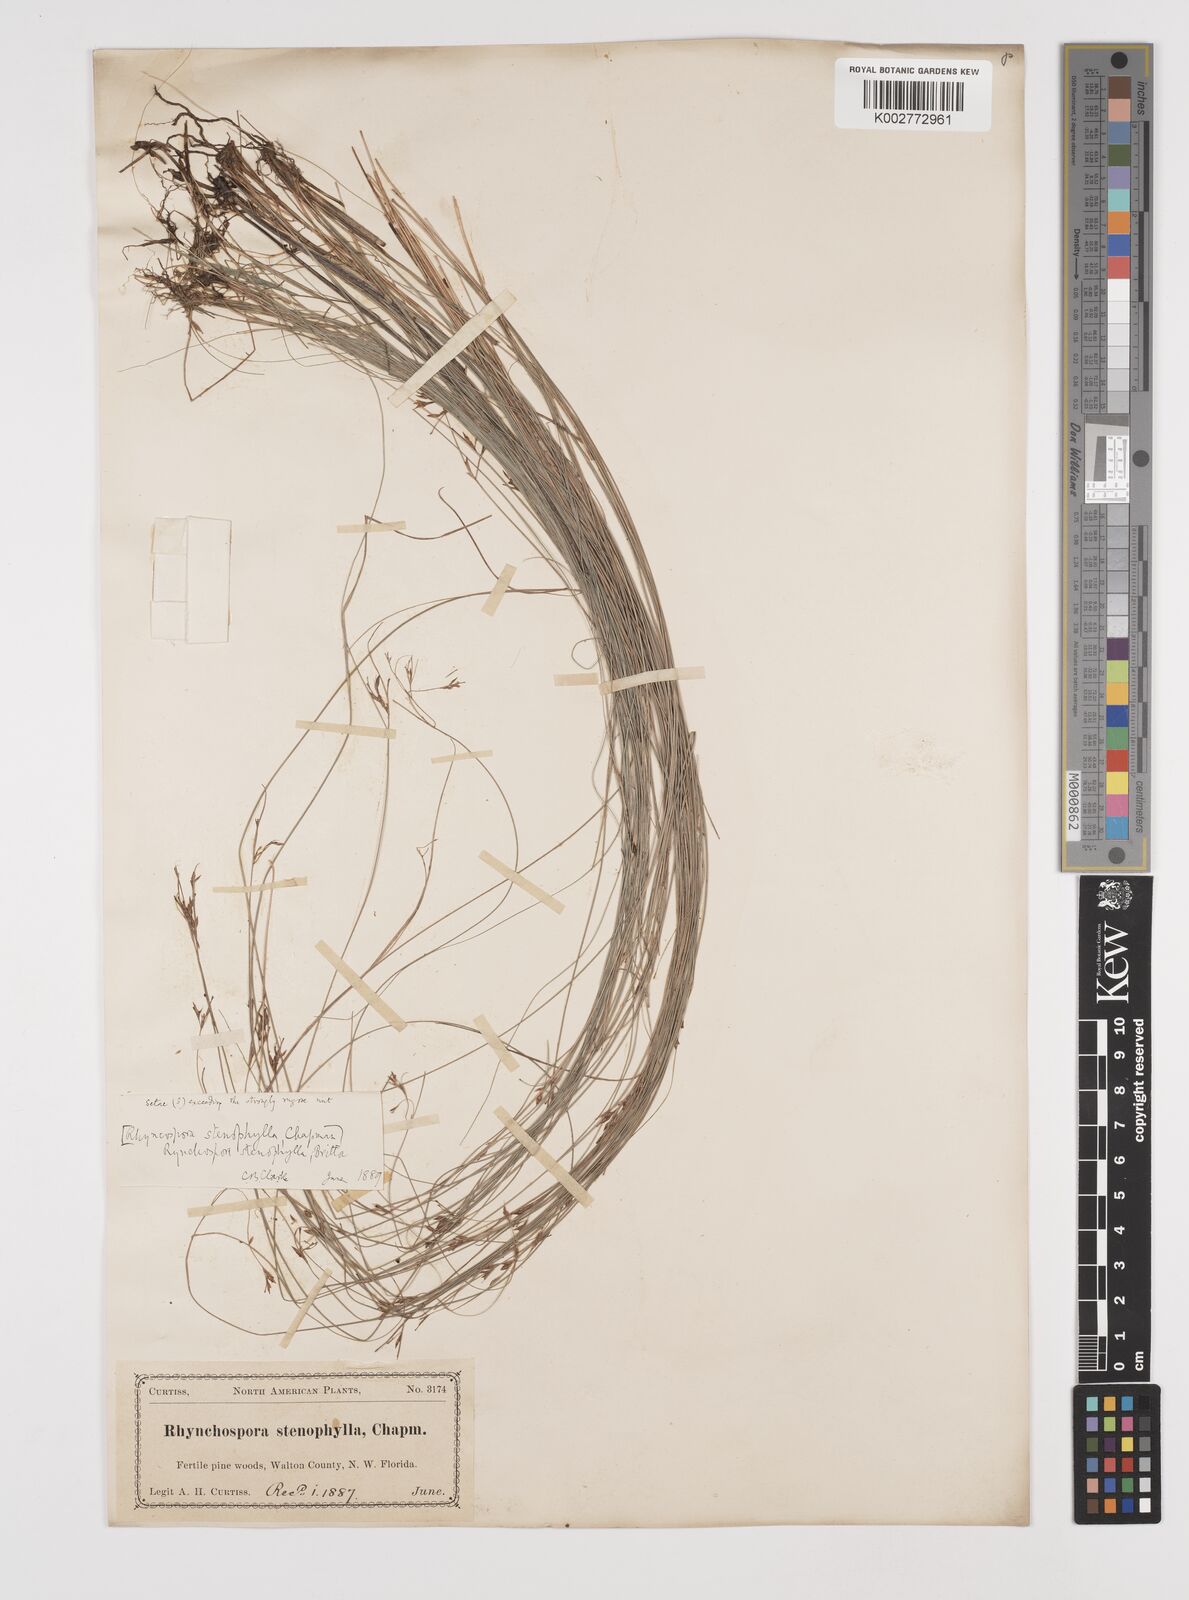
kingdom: Plantae
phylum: Tracheophyta
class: Liliopsida
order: Poales
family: Cyperaceae
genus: Rhynchospora
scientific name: Rhynchospora stenophylla
